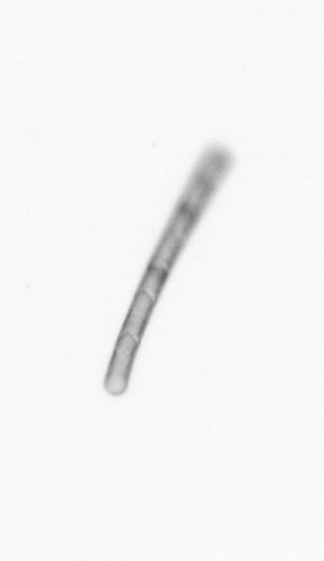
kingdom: Chromista
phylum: Ochrophyta
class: Bacillariophyceae
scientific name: Bacillariophyceae
